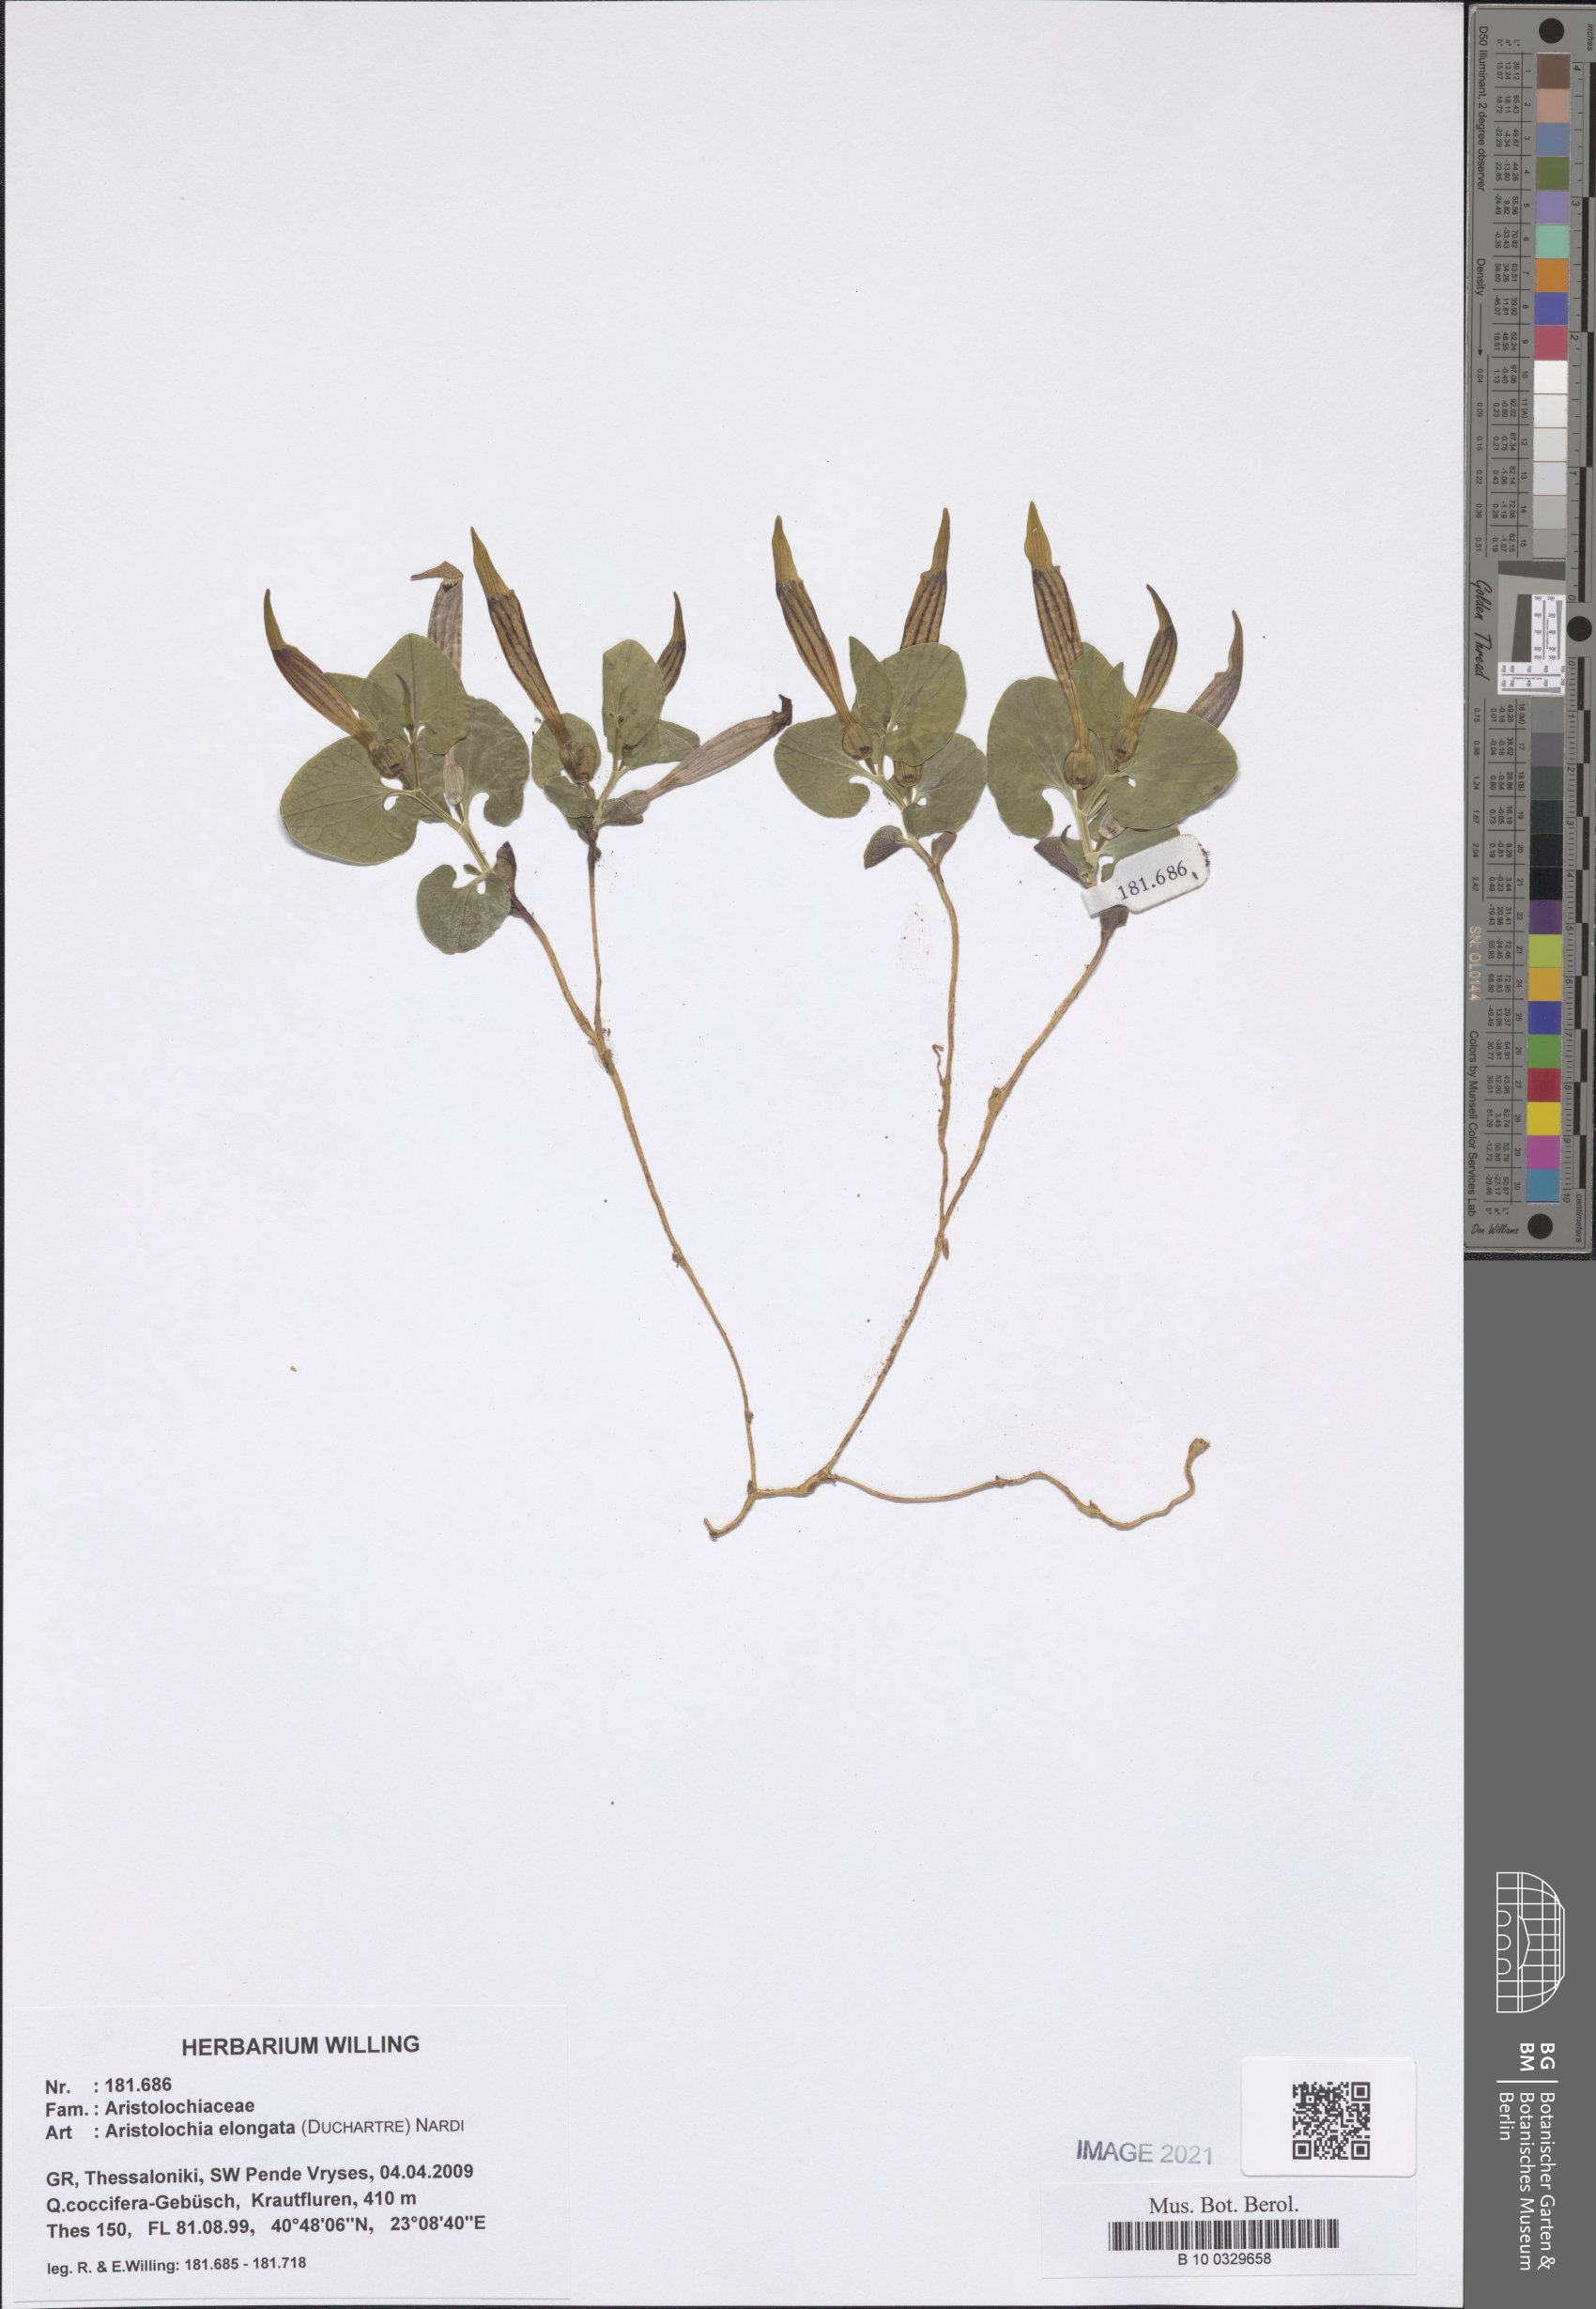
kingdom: Plantae
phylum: Tracheophyta
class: Magnoliopsida
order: Piperales
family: Aristolochiaceae
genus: Aristolochia
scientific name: Aristolochia nardiana
